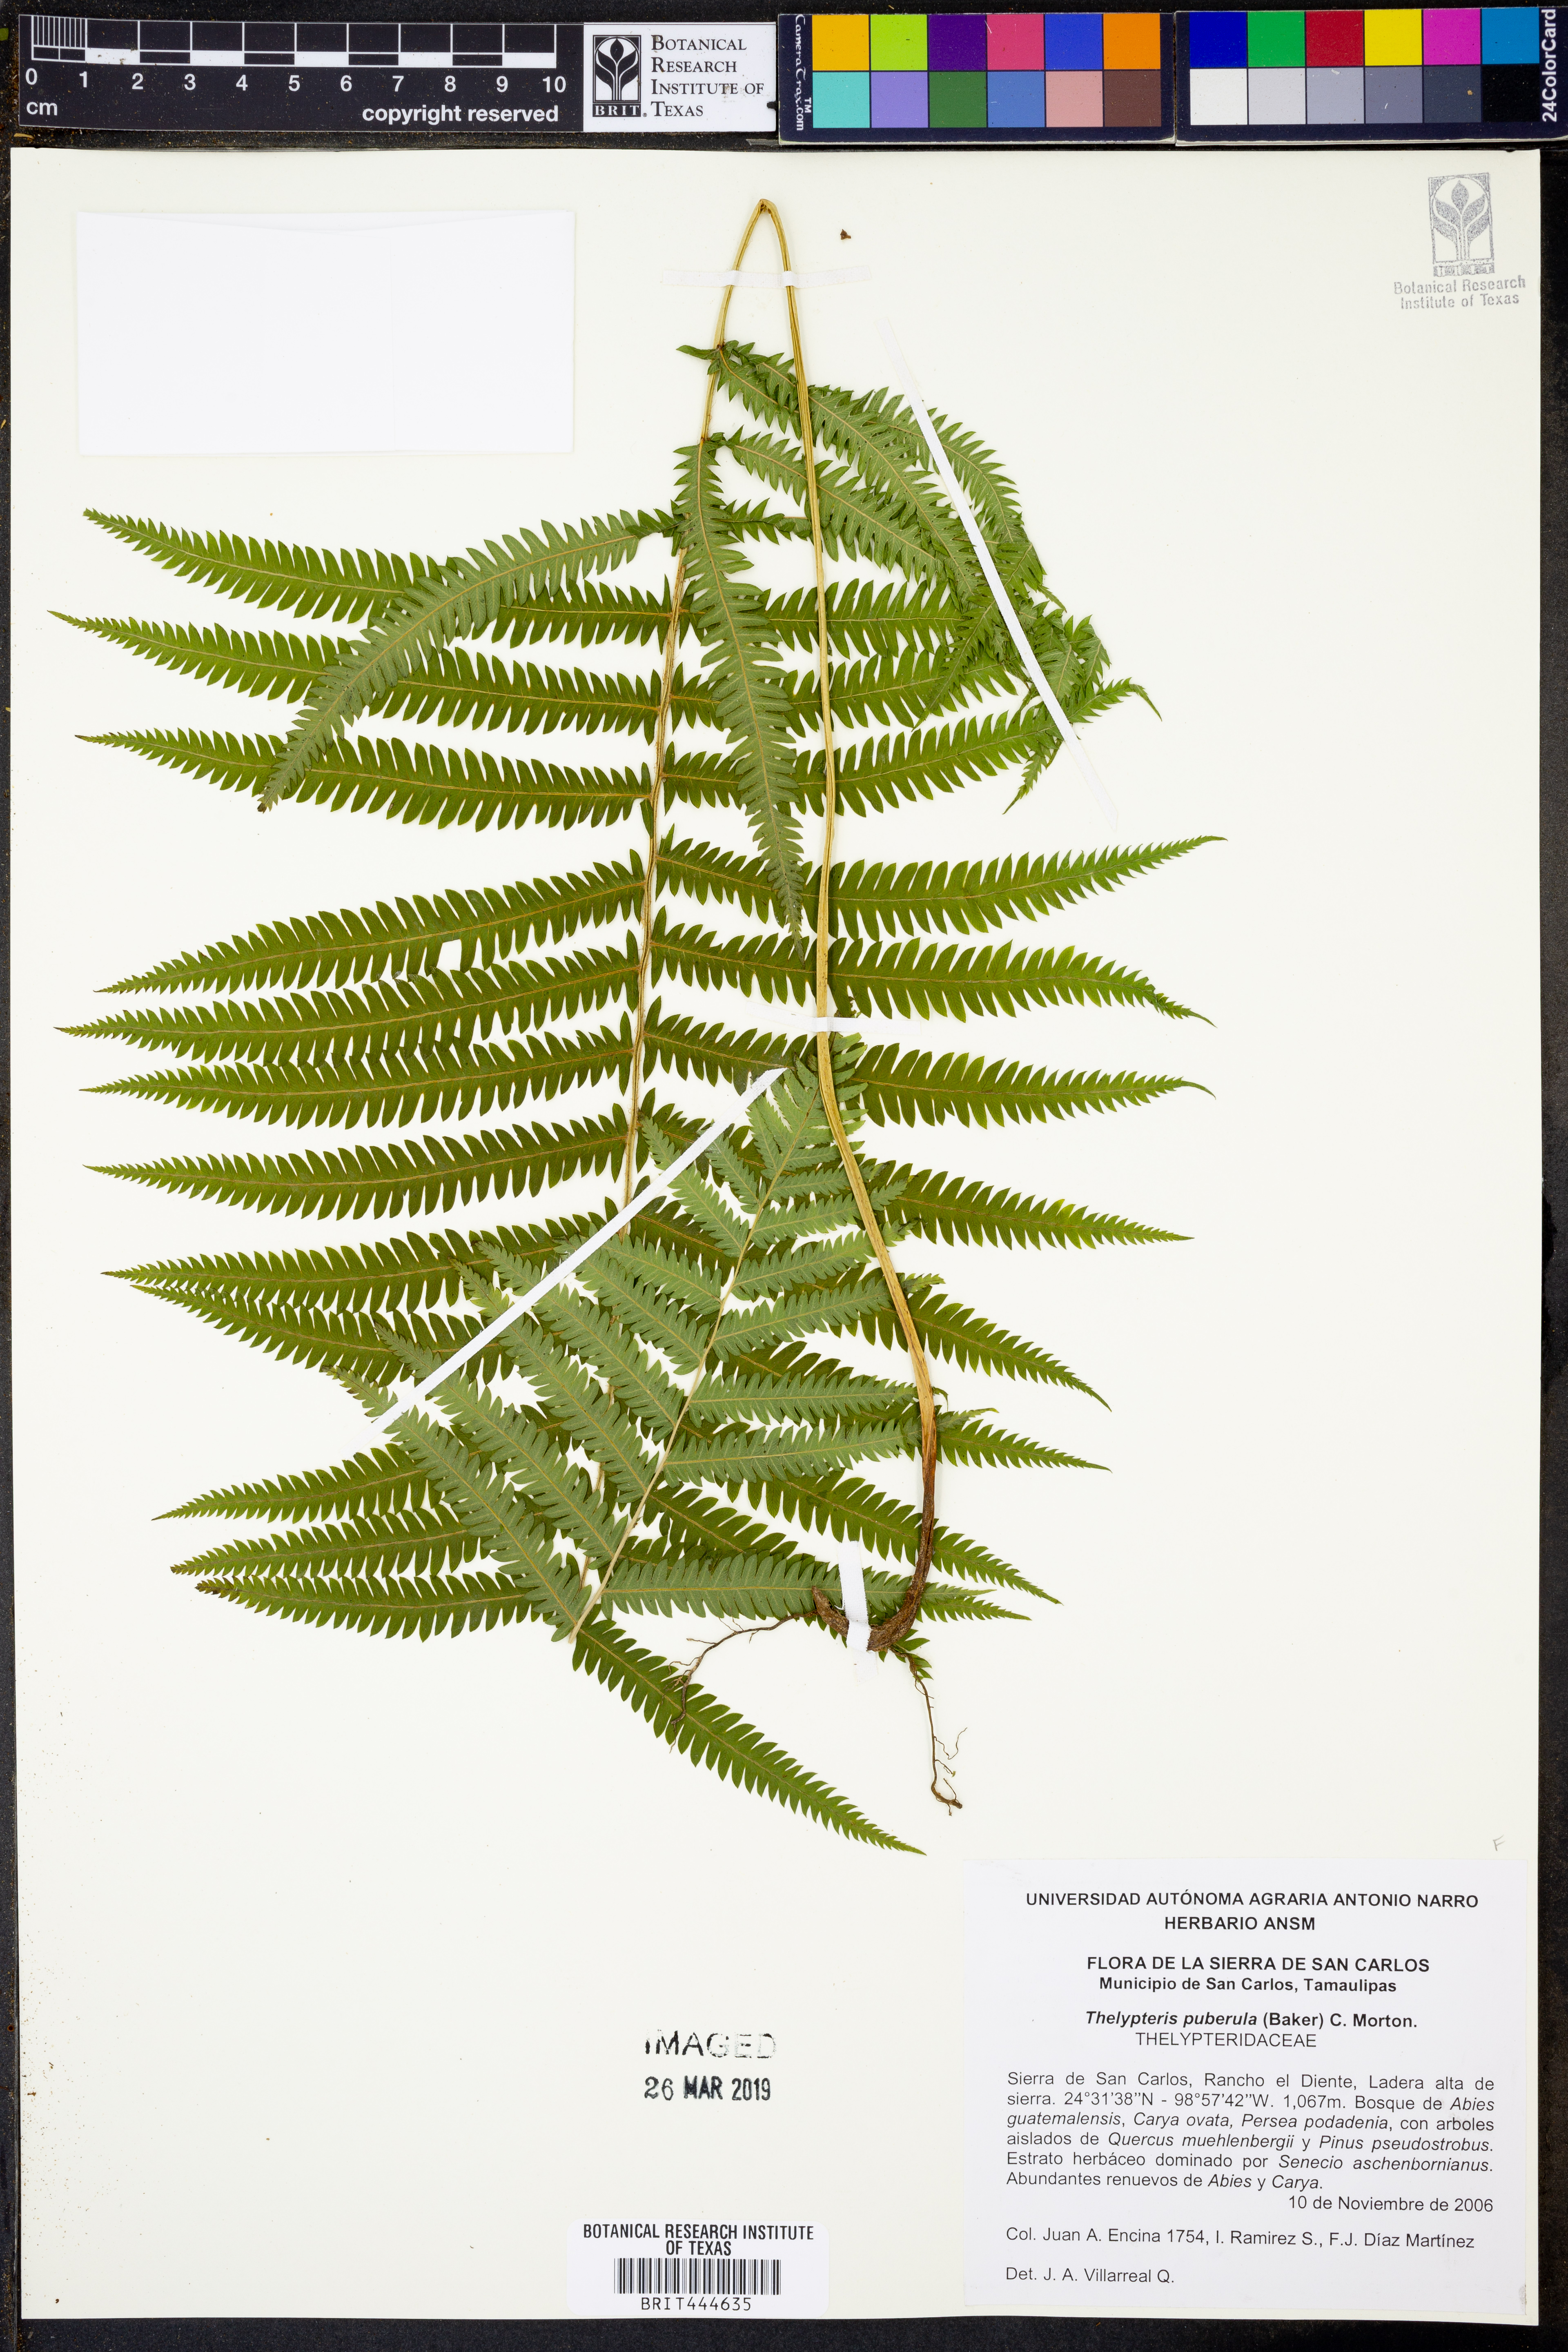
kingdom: Plantae
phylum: Tracheophyta
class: Polypodiopsida
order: Polypodiales
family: Thelypteridaceae
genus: Pelazoneuron
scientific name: Pelazoneuron puberulum
